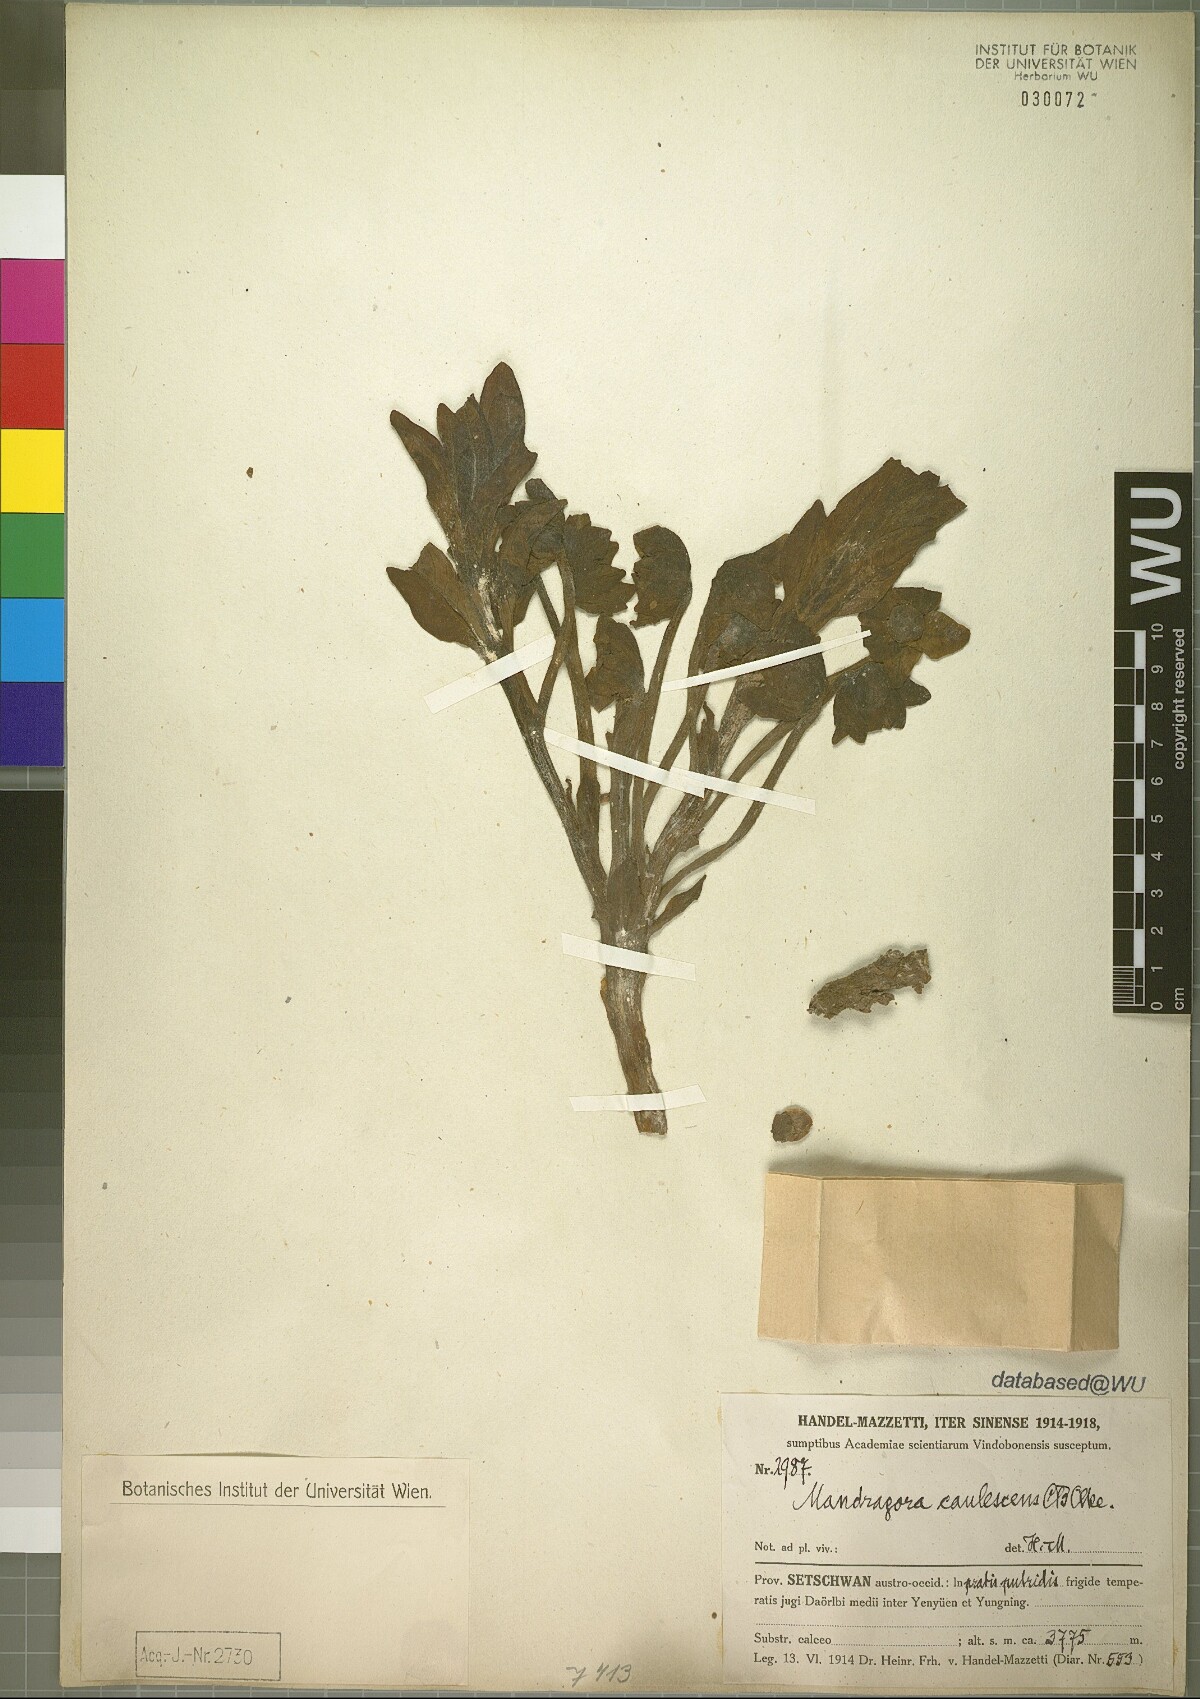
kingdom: Plantae
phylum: Tracheophyta
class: Magnoliopsida
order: Solanales
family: Solanaceae
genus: Mandragora
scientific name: Mandragora caulescens
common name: Himalayan mandrake
